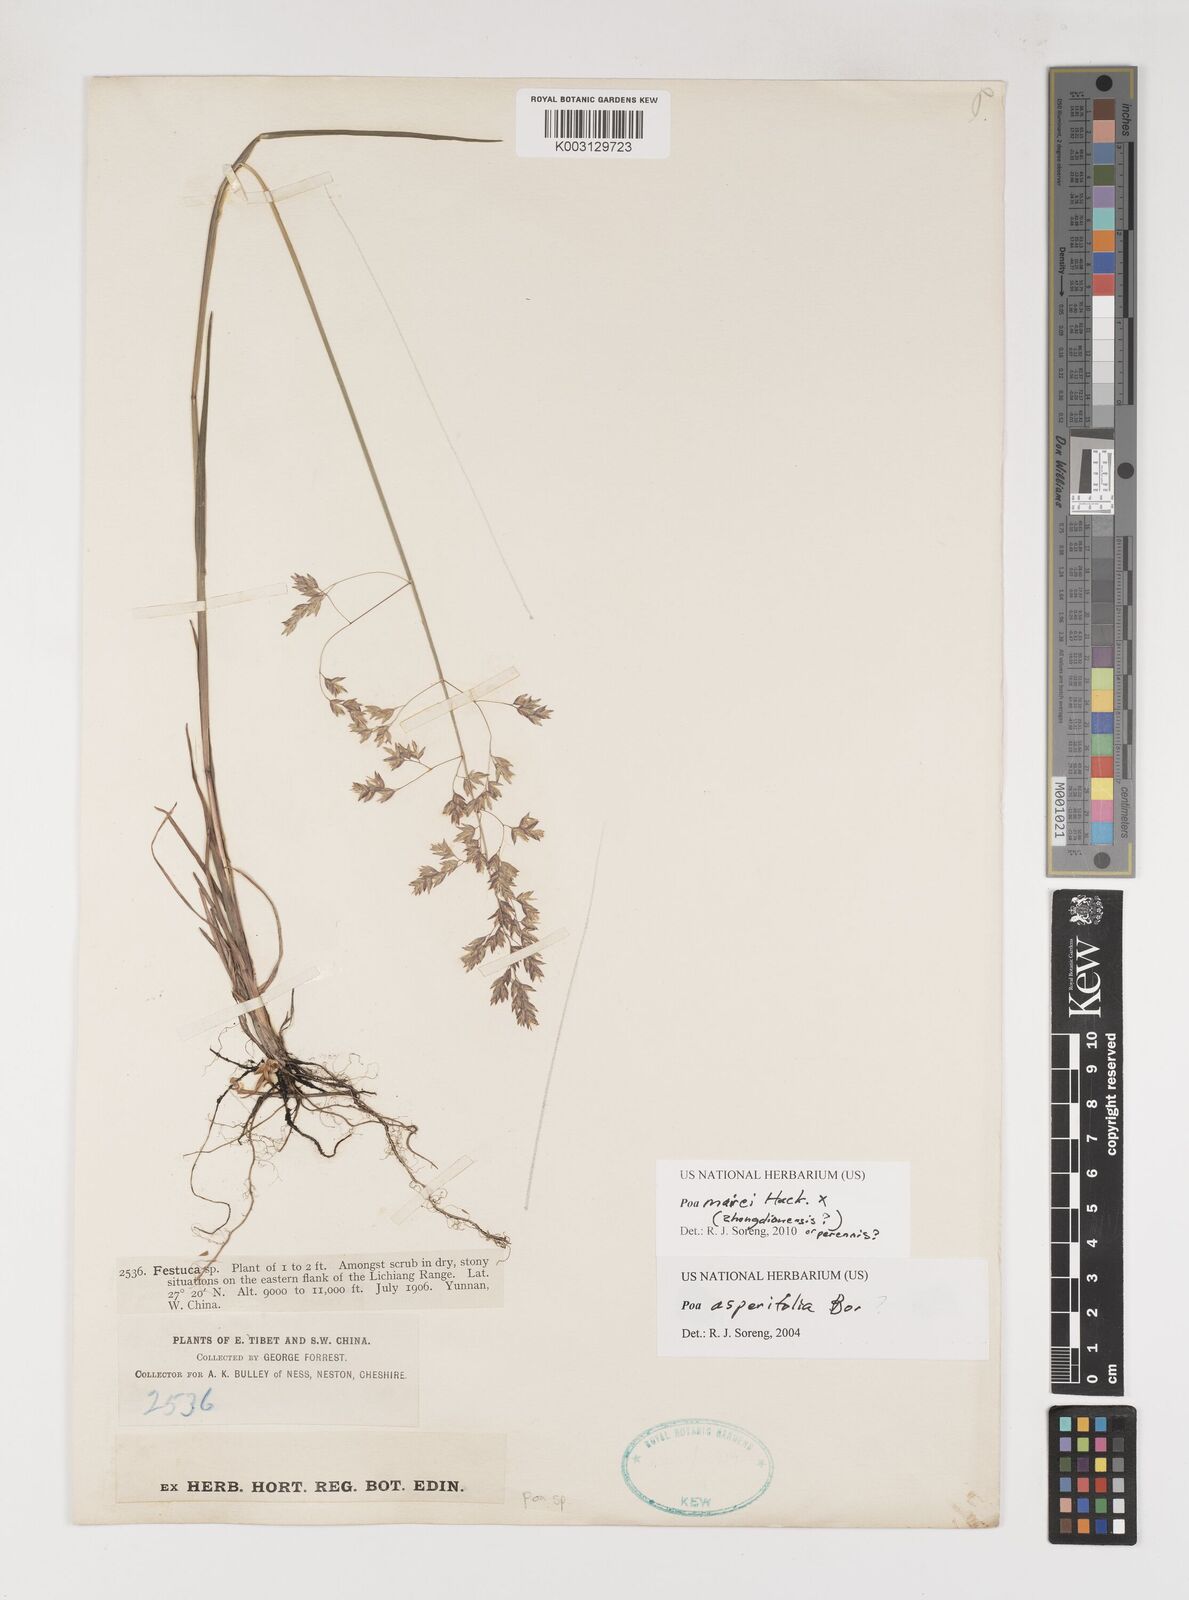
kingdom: Plantae
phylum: Tracheophyta
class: Liliopsida
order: Poales
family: Poaceae
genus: Poa
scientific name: Poa mairei
